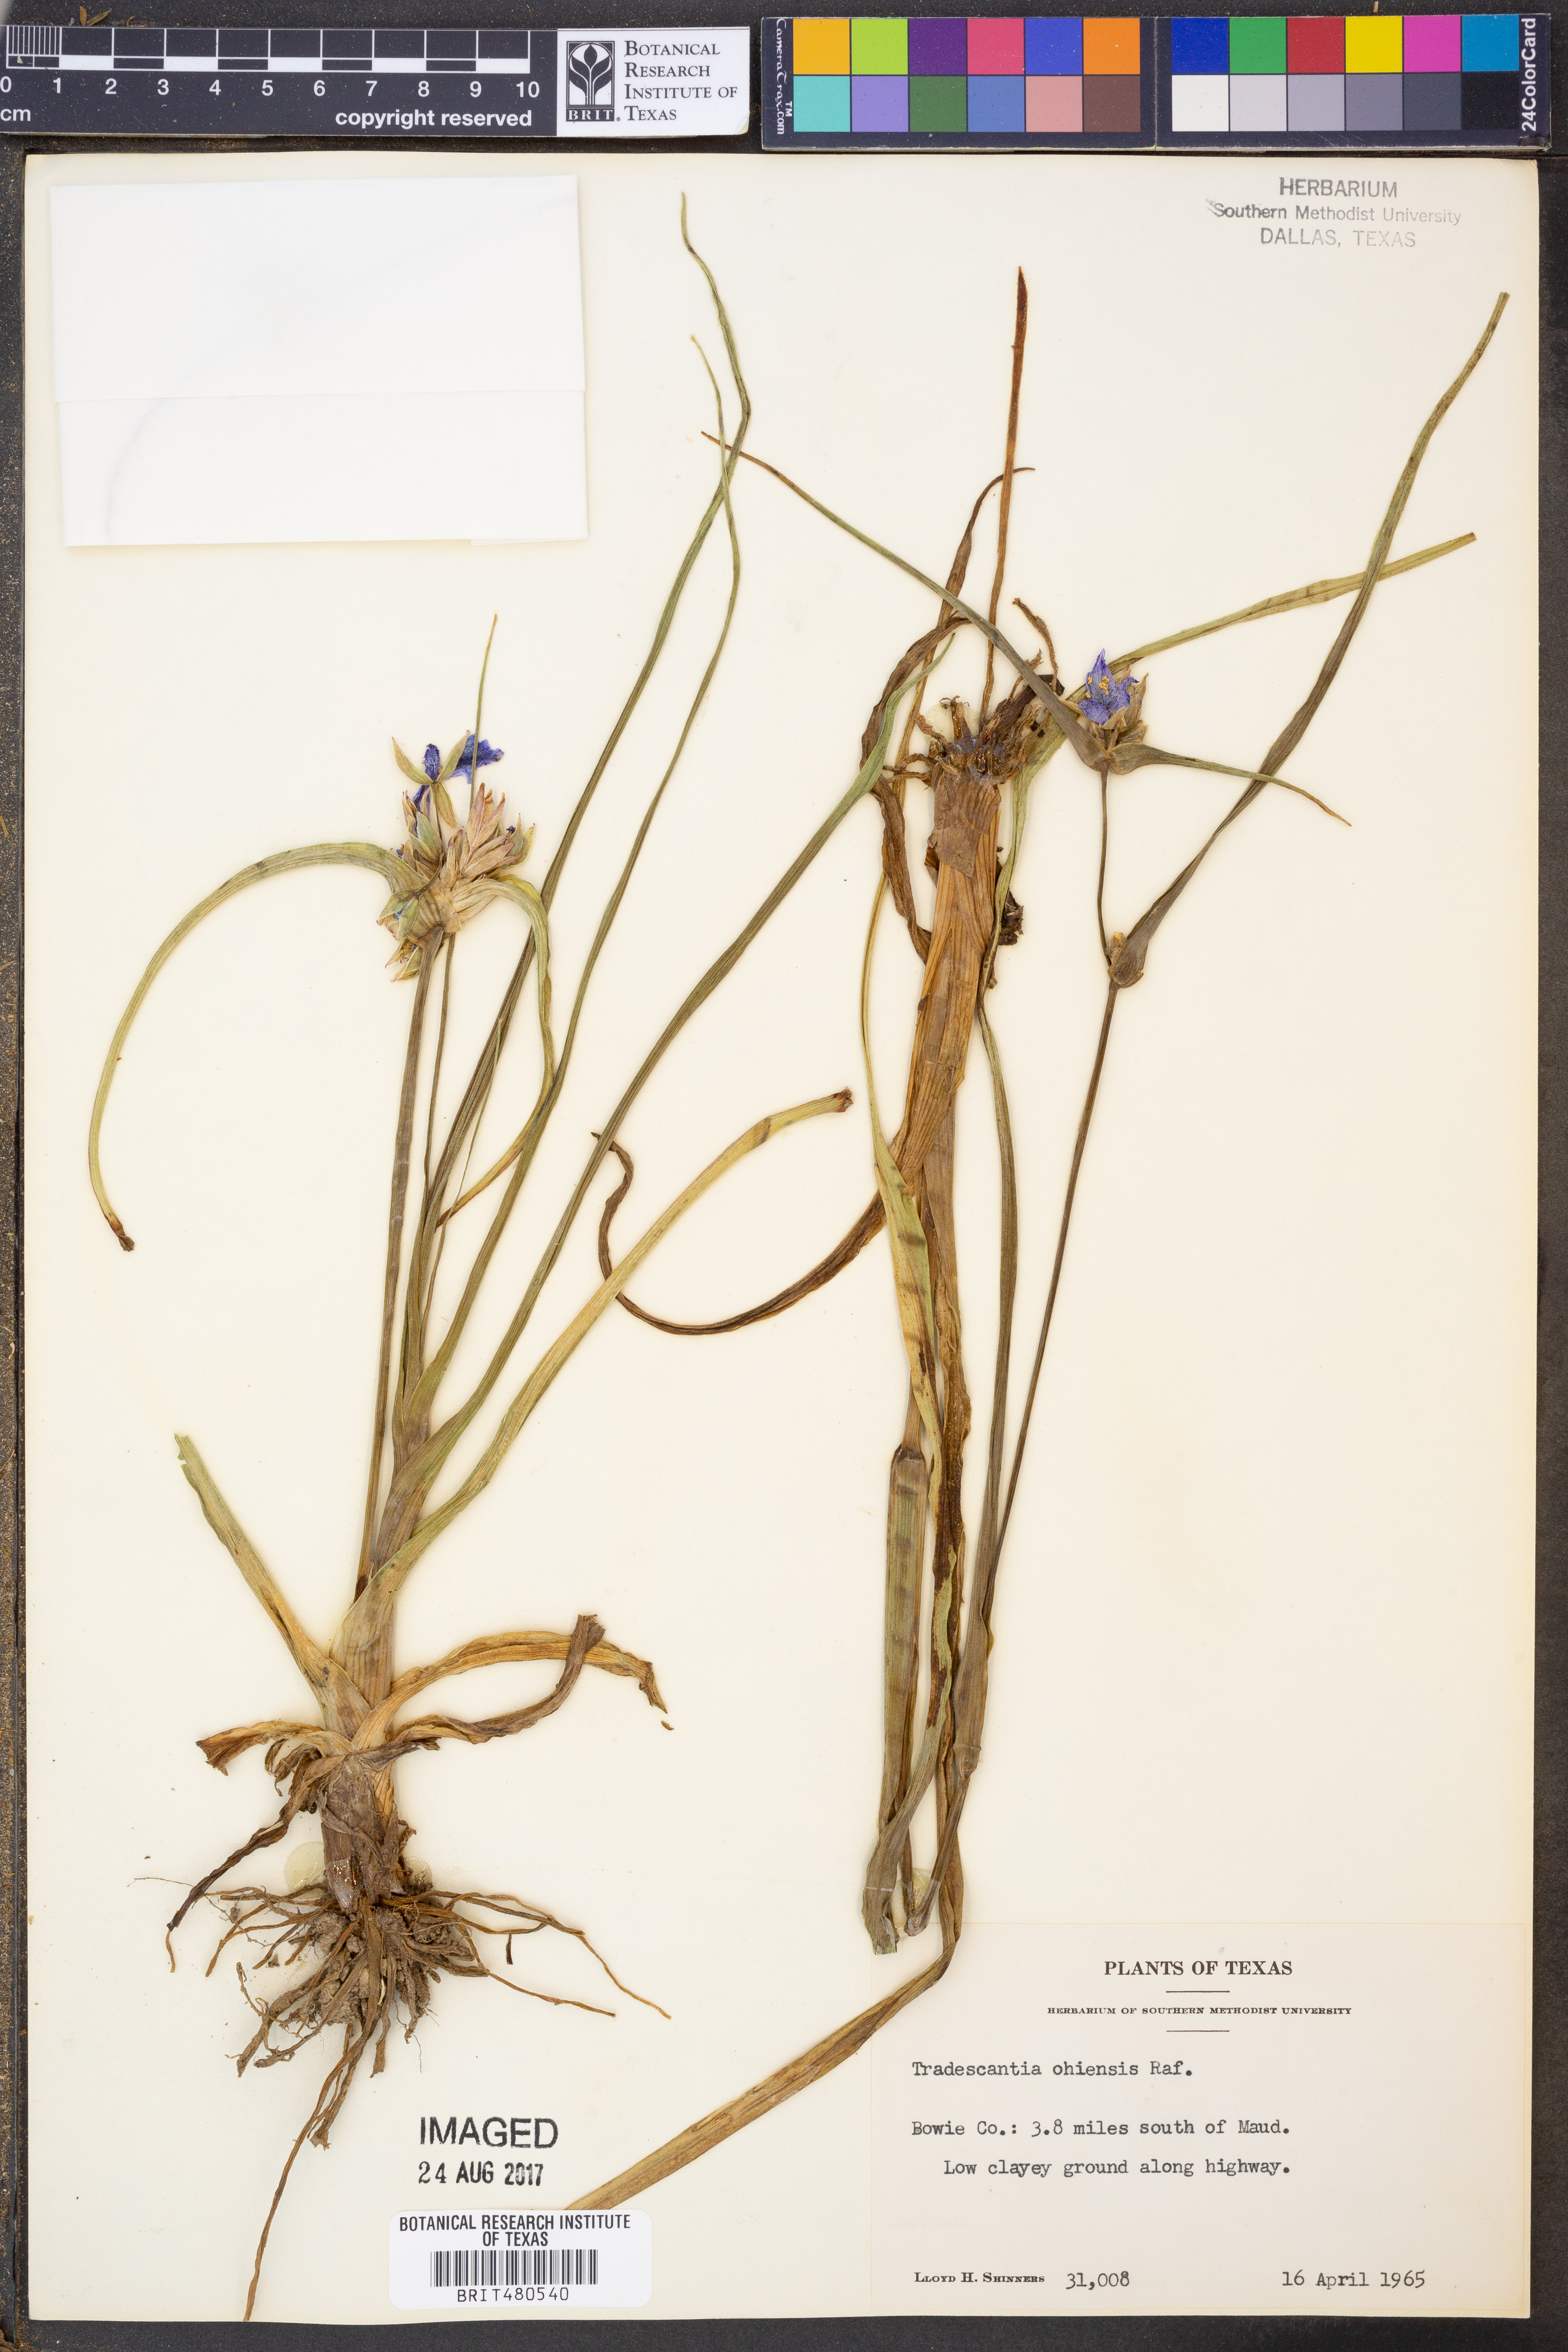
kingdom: Plantae
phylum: Tracheophyta
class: Liliopsida
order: Commelinales
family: Commelinaceae
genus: Tradescantia
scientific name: Tradescantia ohiensis
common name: Ohio spiderwort
